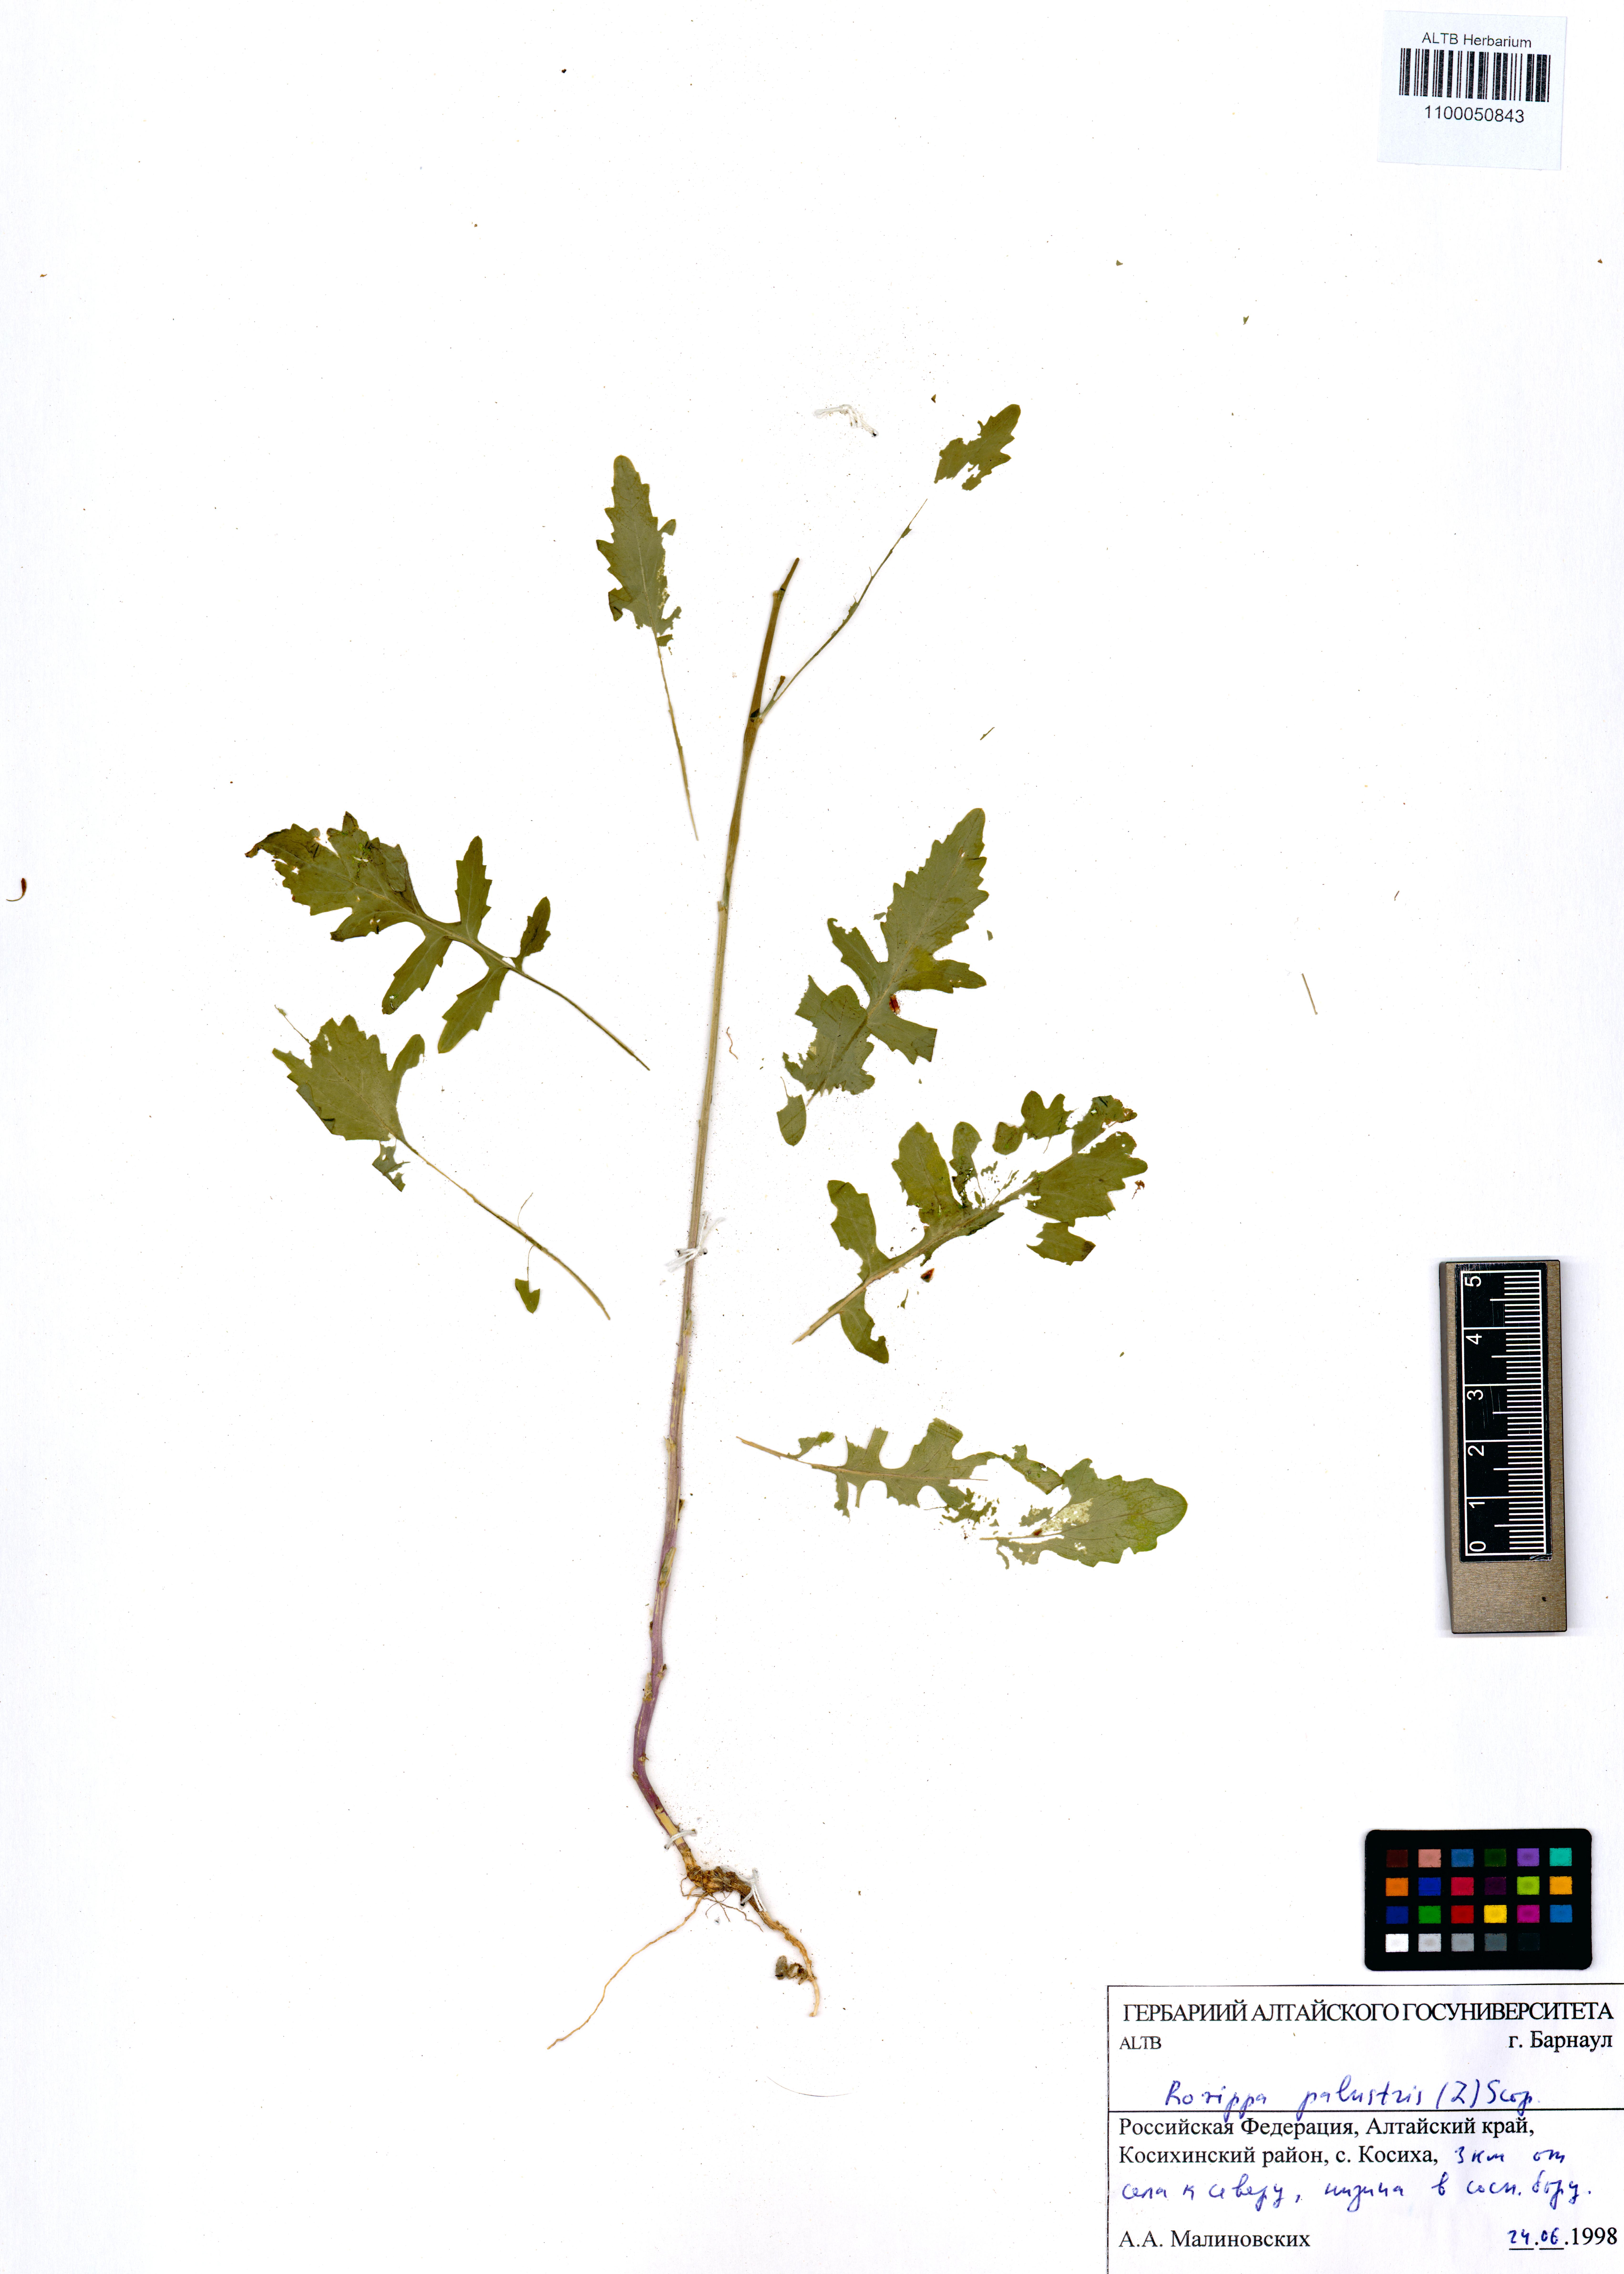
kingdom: Plantae
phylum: Tracheophyta
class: Magnoliopsida
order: Brassicales
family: Brassicaceae
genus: Rorippa
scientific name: Rorippa palustris
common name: Marsh yellow-cress
